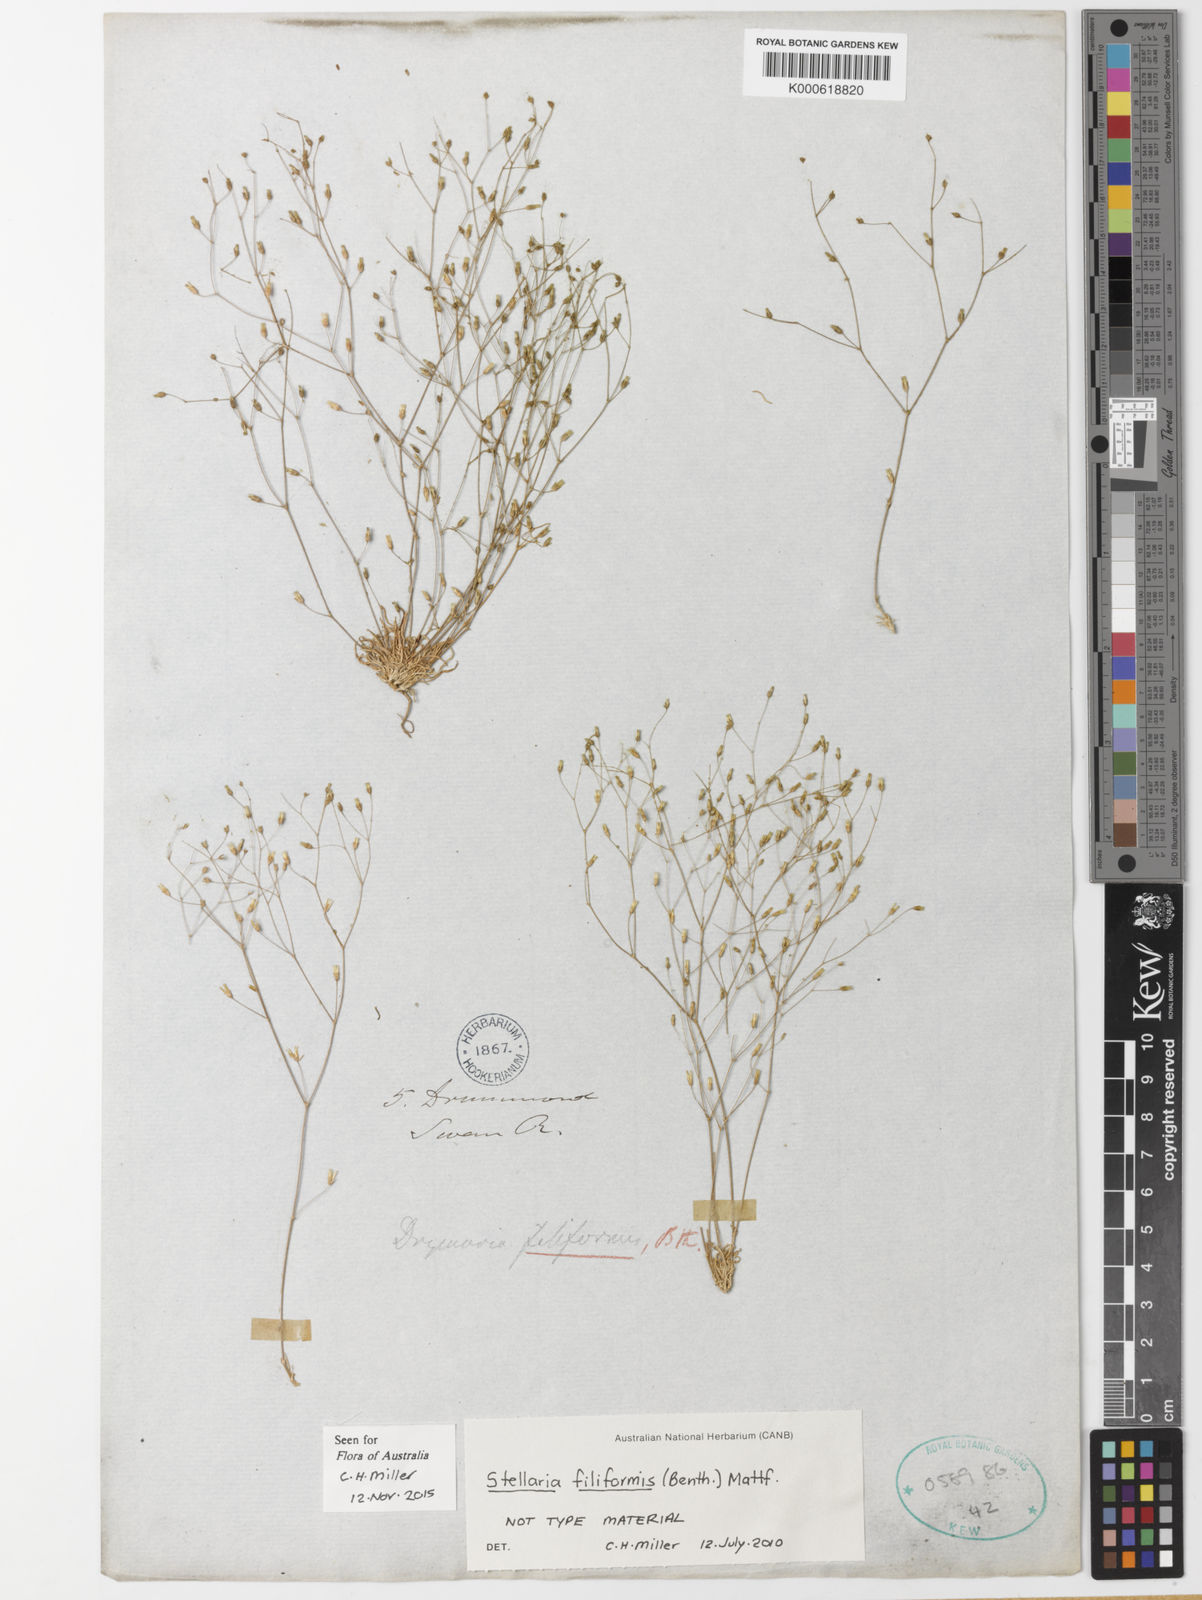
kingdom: Plantae
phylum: Tracheophyta
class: Magnoliopsida
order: Caryophyllales
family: Caryophyllaceae
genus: Stellaria
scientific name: Stellaria filiformis
